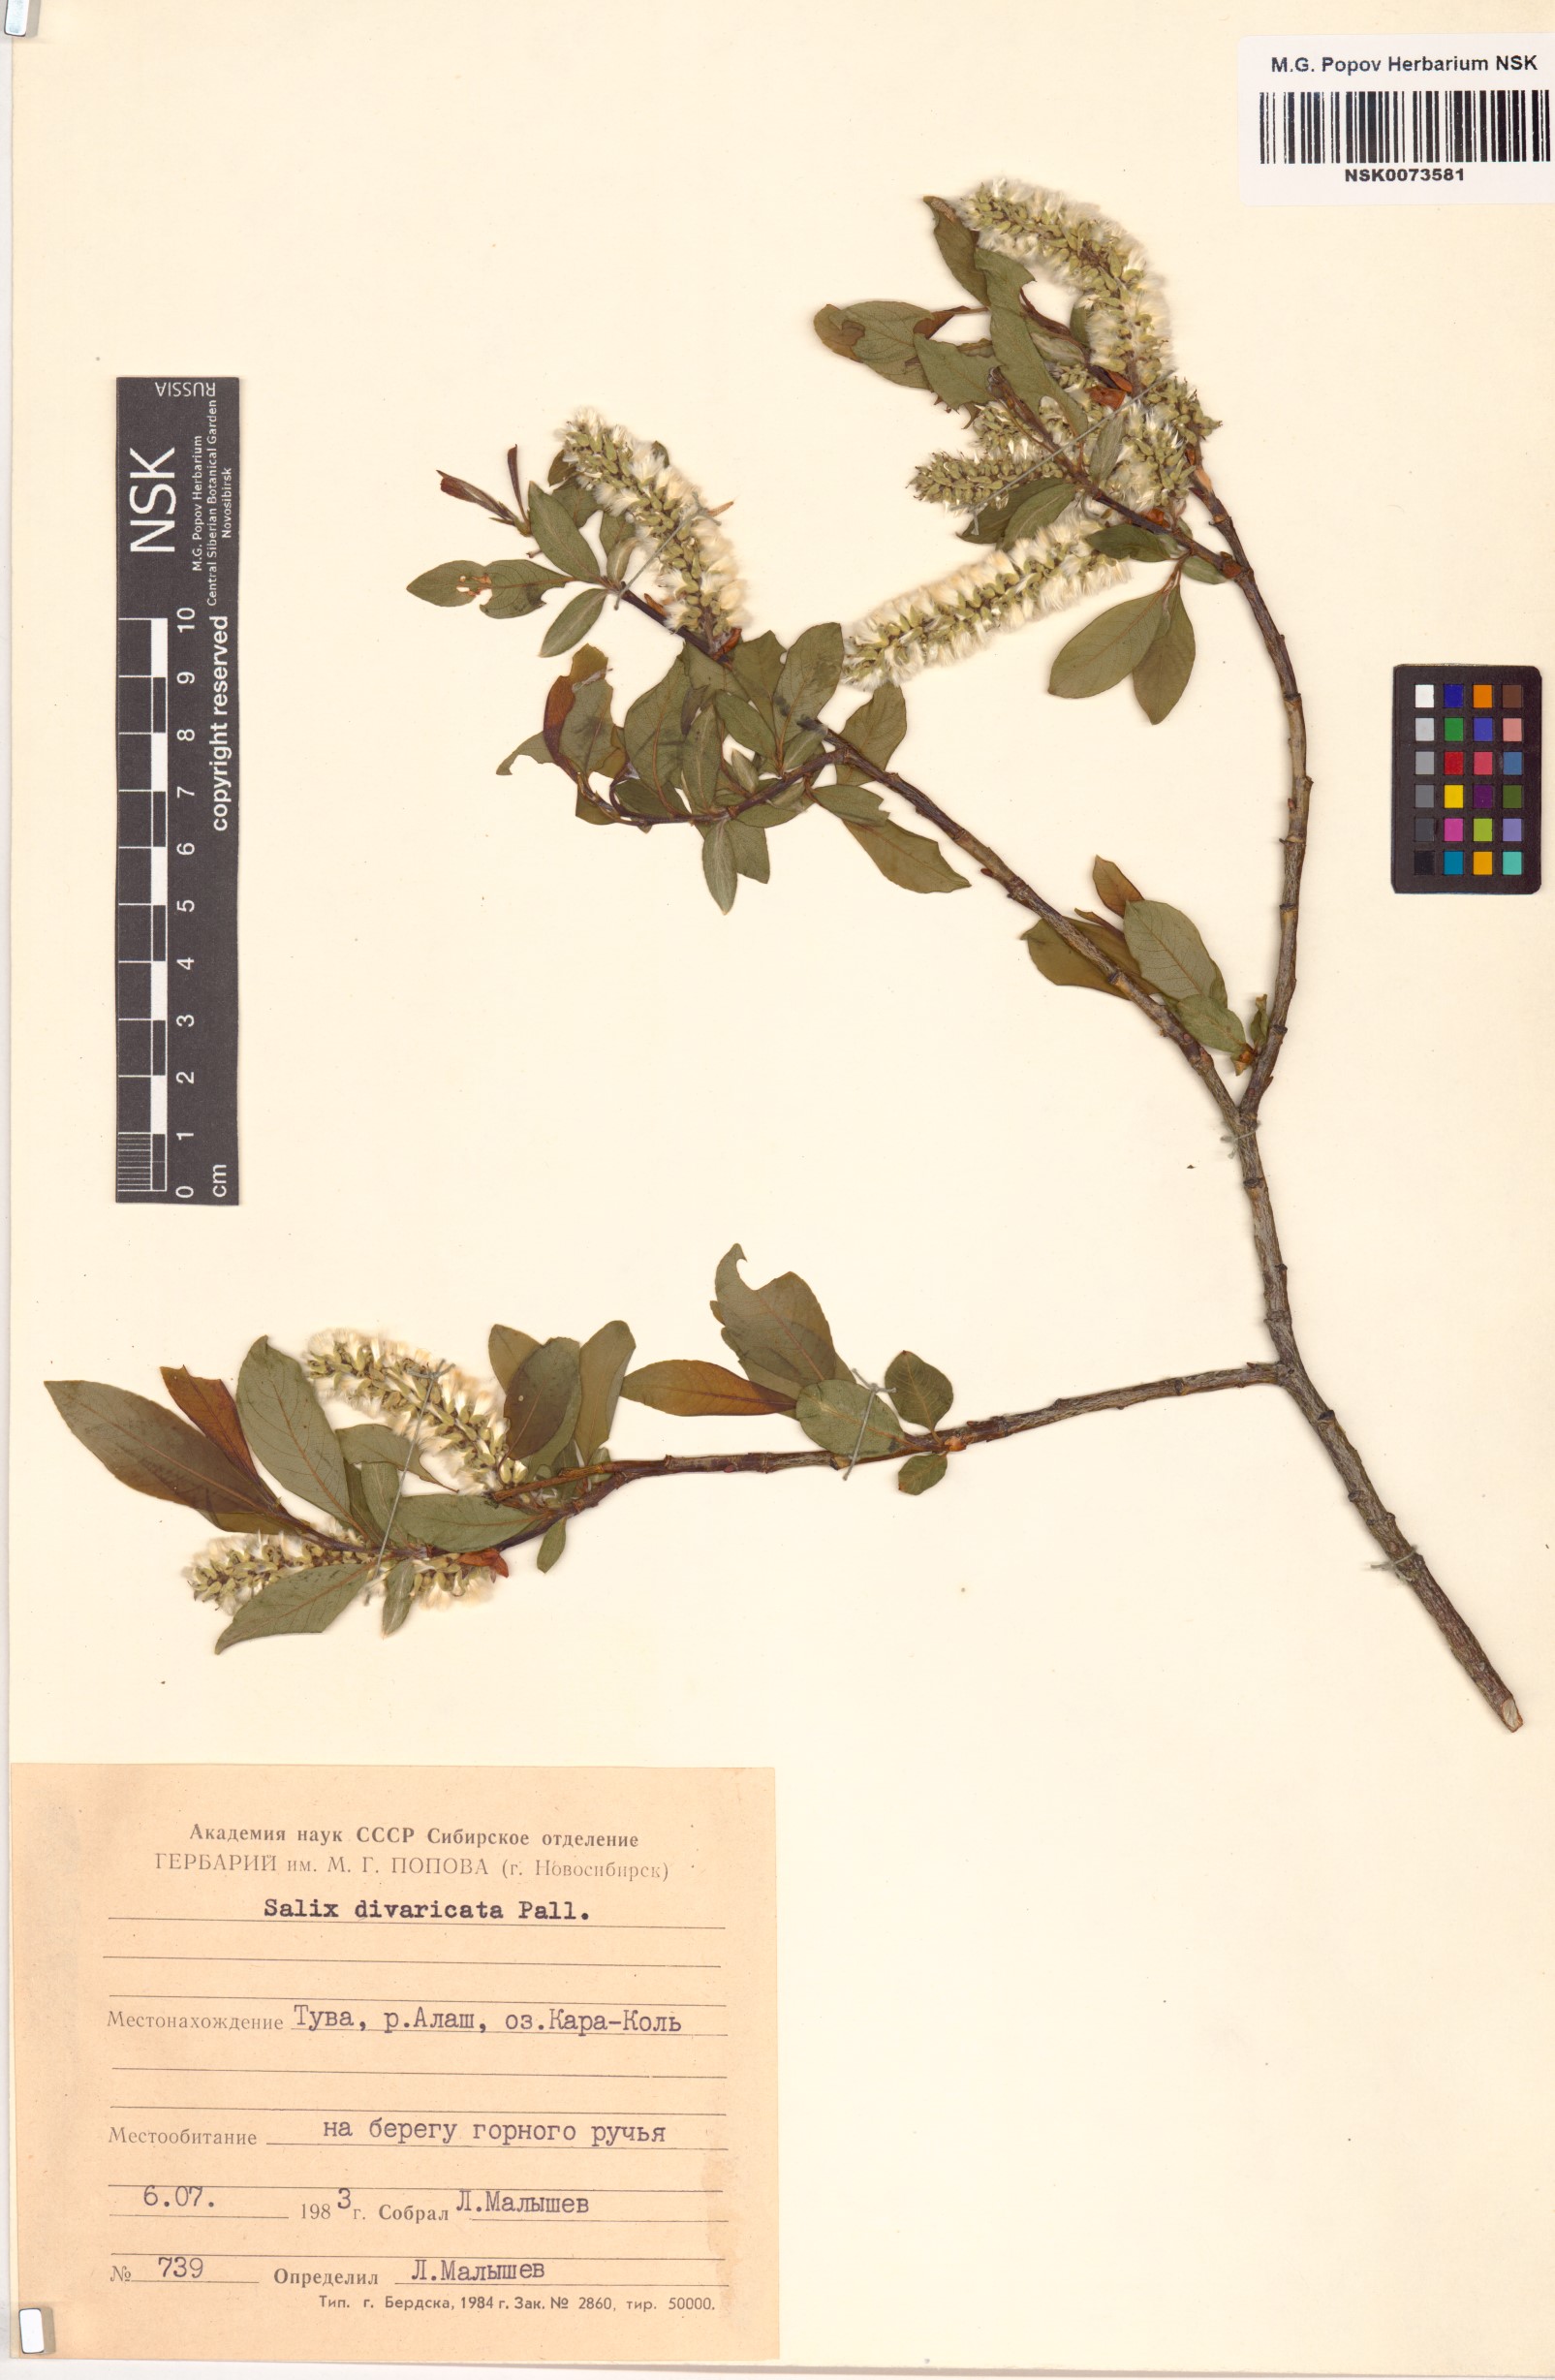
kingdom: Plantae
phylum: Tracheophyta
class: Magnoliopsida
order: Malpighiales
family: Salicaceae
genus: Salix
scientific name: Salix divaricata
